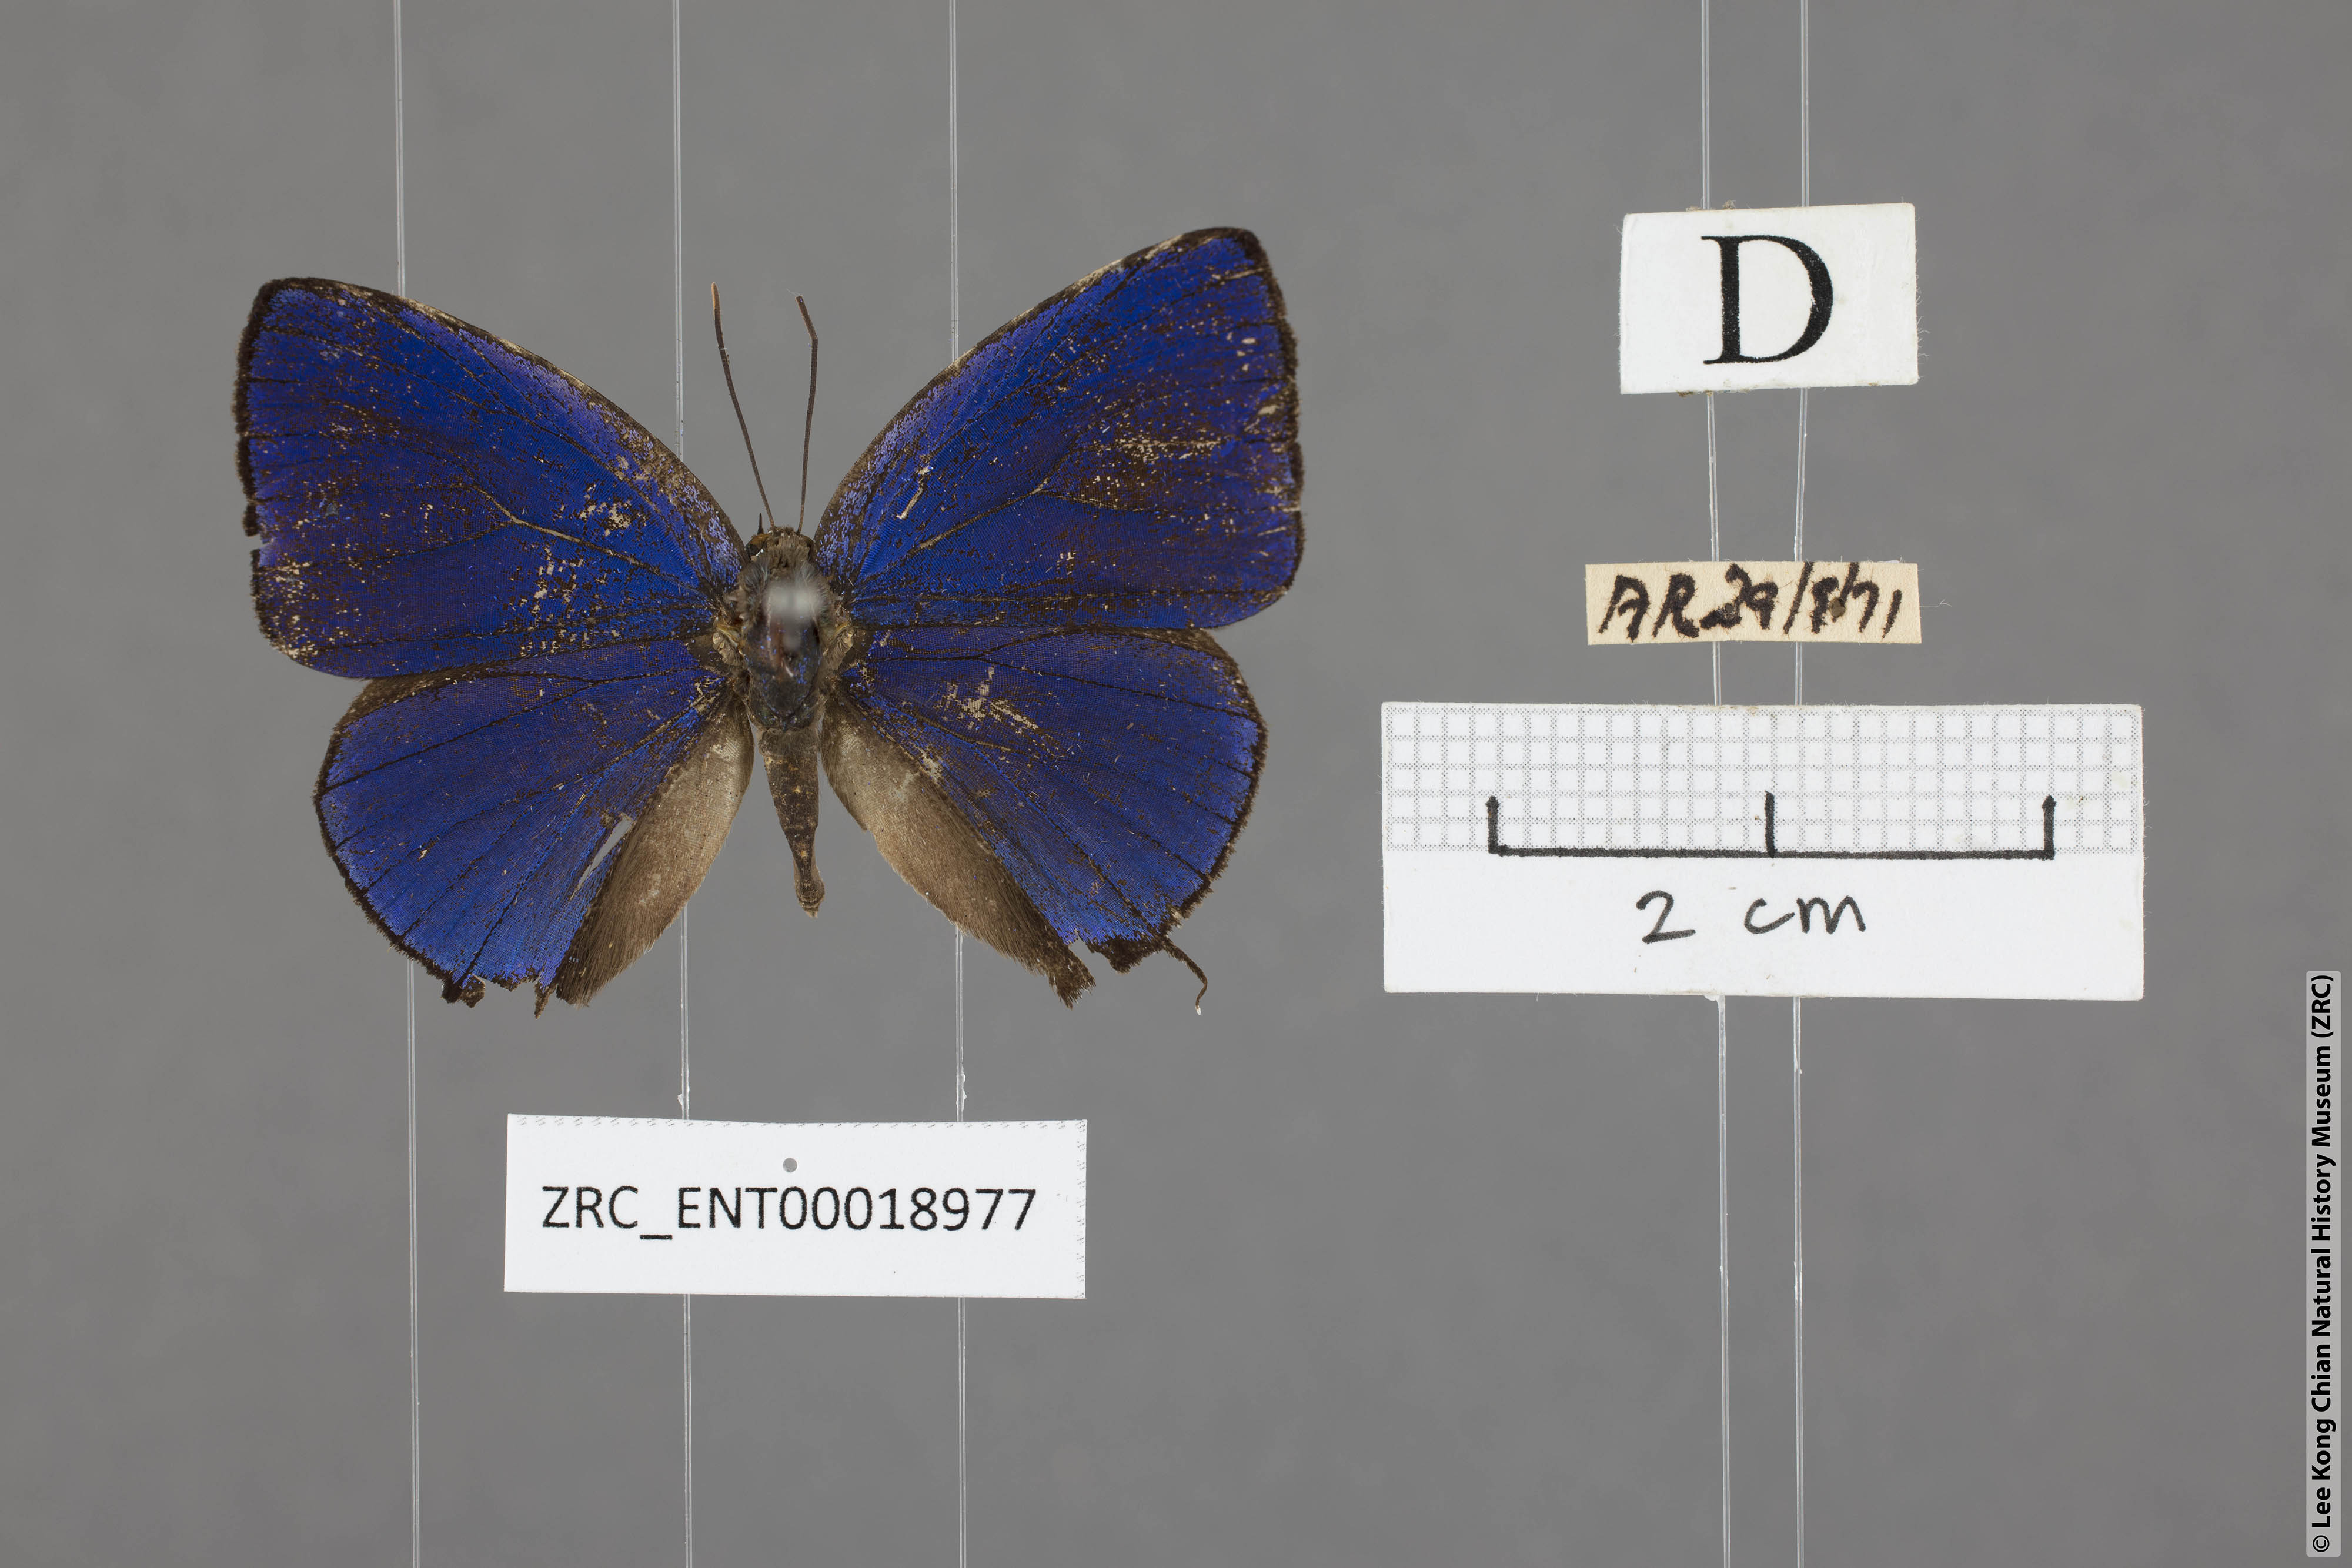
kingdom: Animalia
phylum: Arthropoda
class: Insecta
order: Lepidoptera
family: Lycaenidae
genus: Arhopala
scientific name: Arhopala ace
